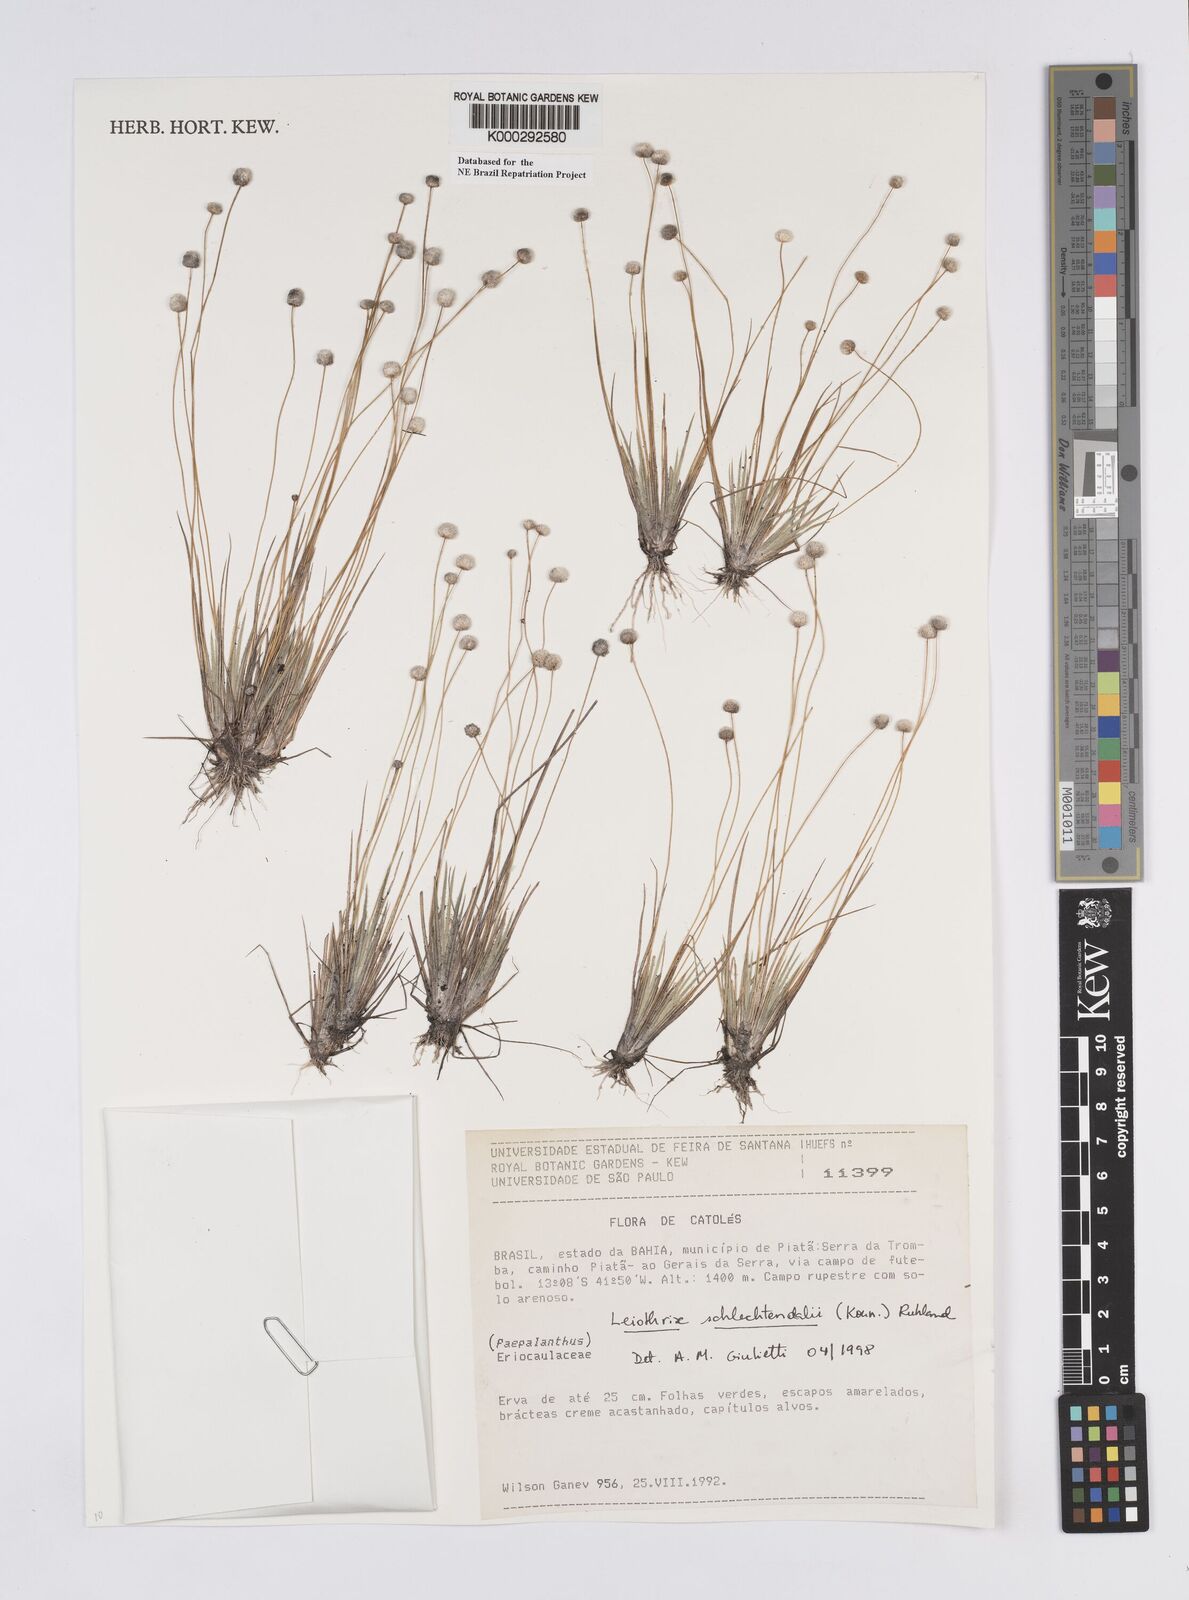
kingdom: Plantae
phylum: Tracheophyta
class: Liliopsida
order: Poales
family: Eriocaulaceae
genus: Leiothrix
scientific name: Leiothrix schlechtendalii
